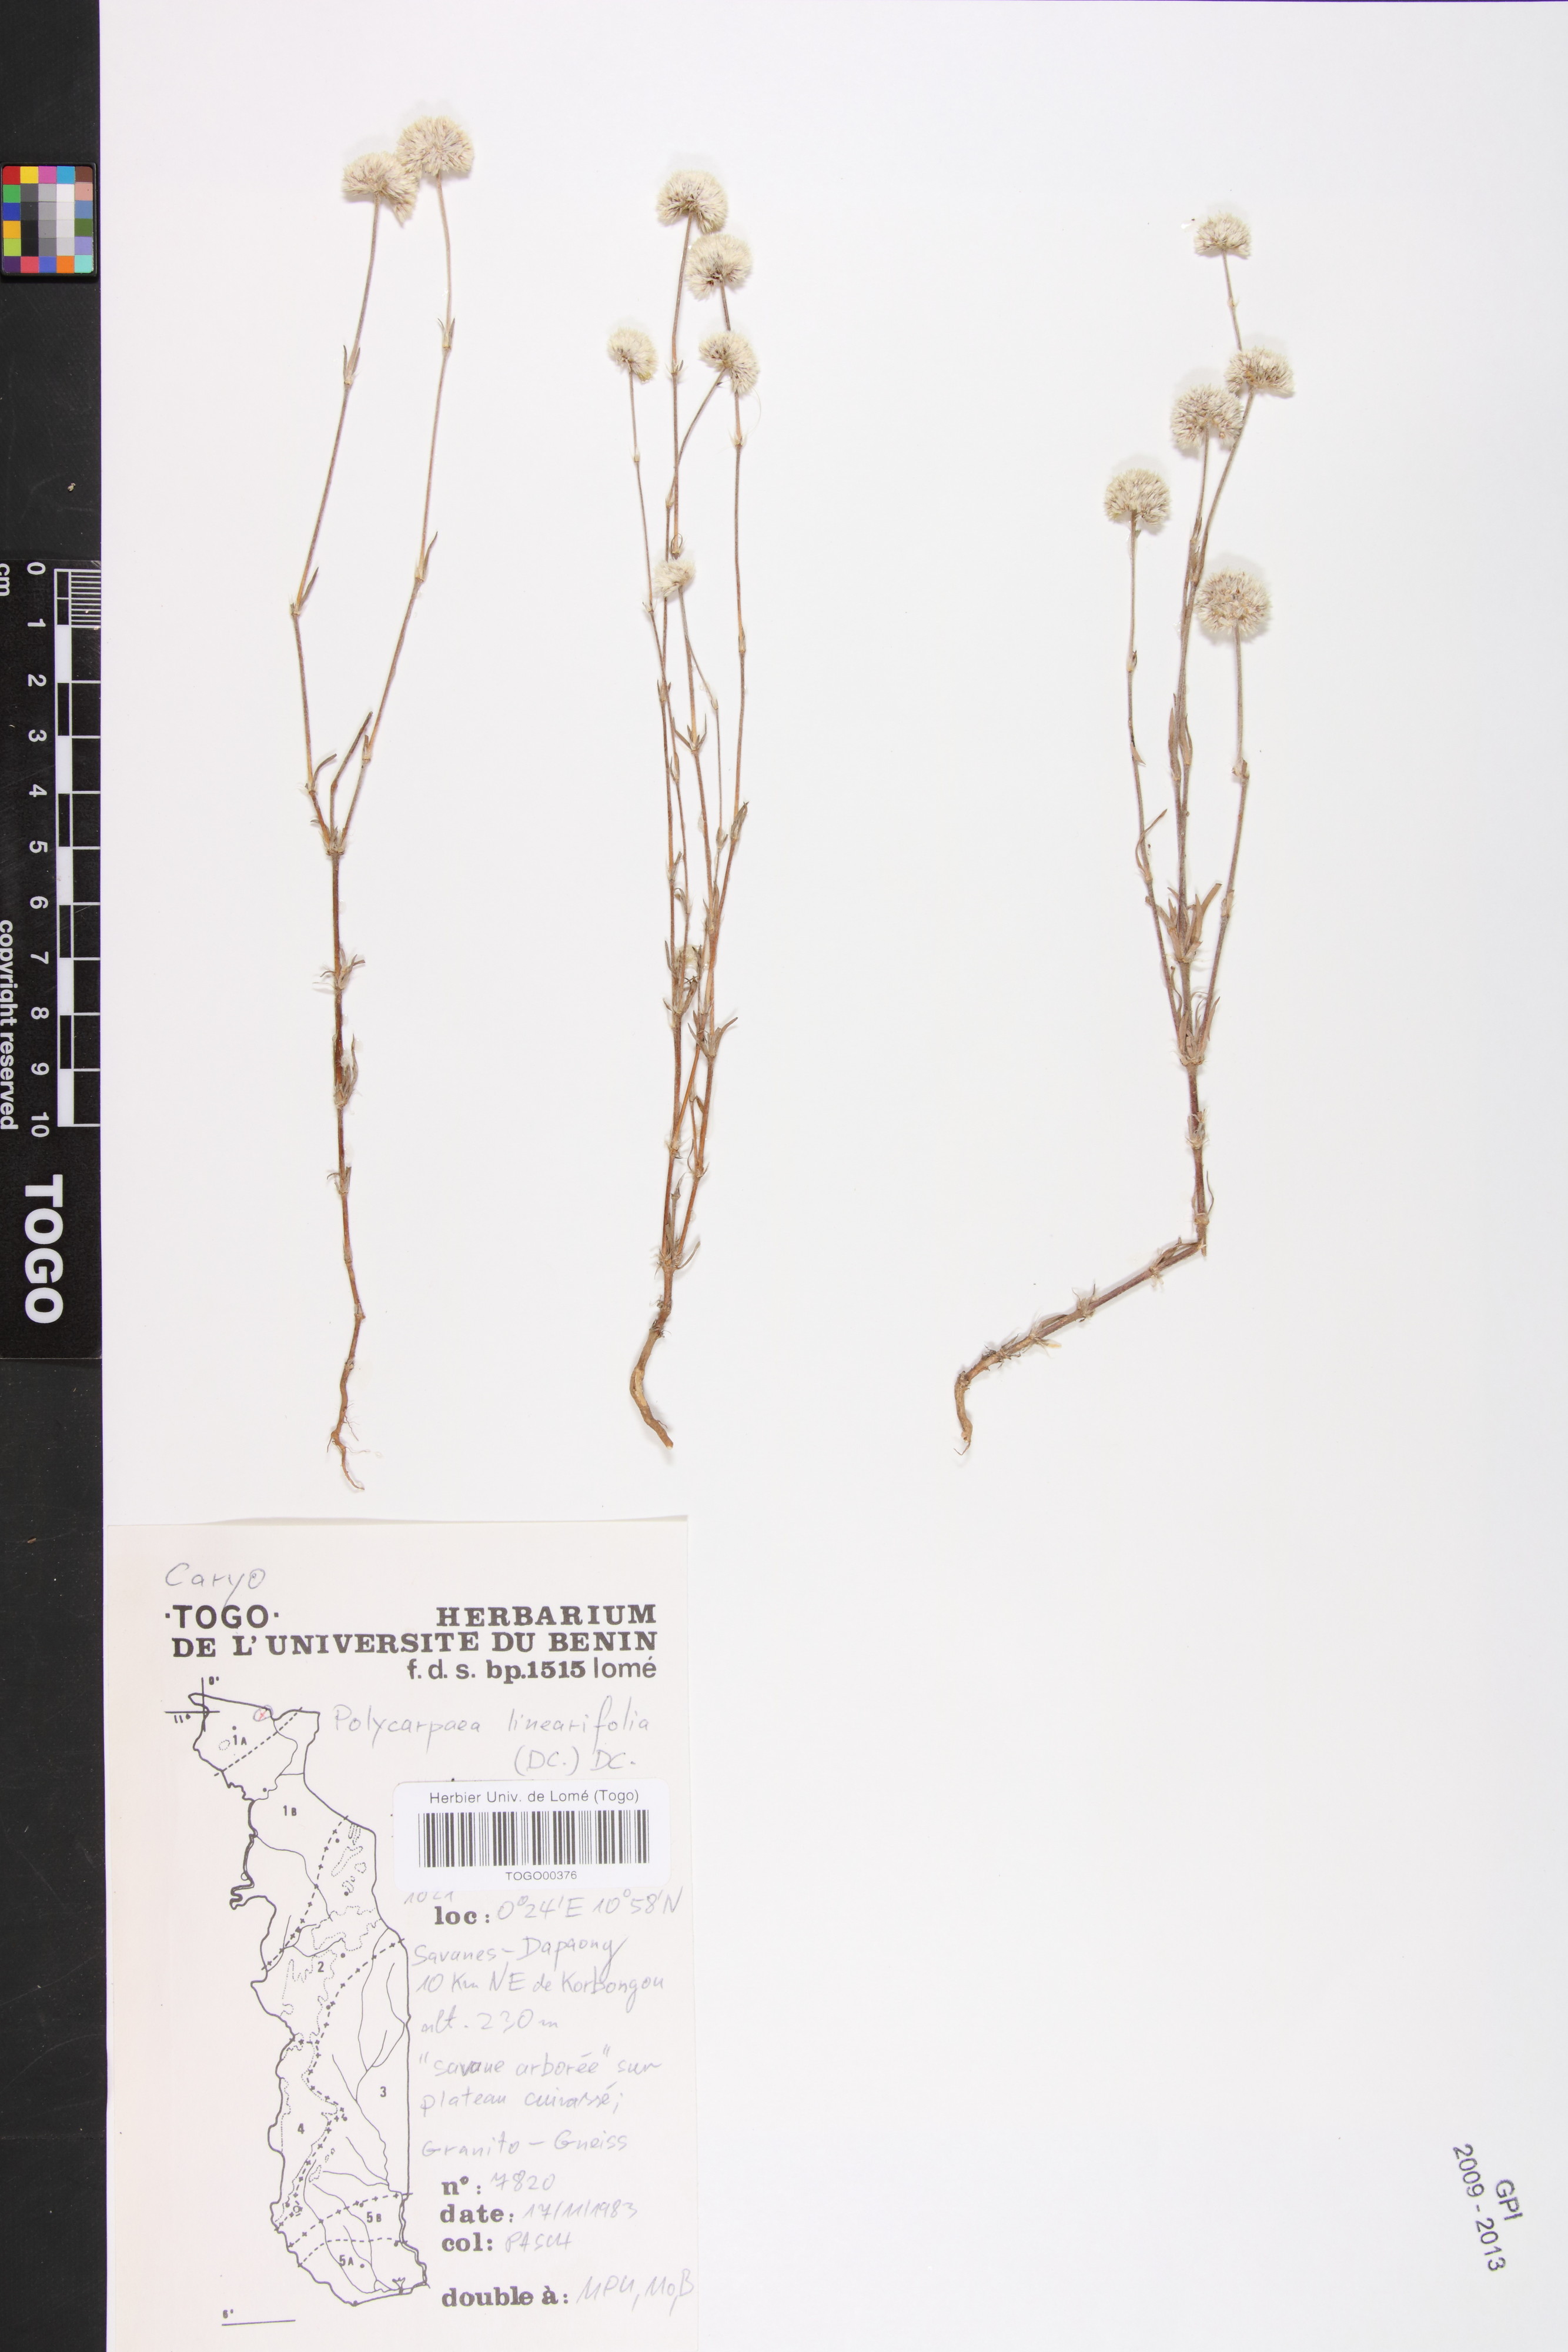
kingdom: Plantae
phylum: Tracheophyta
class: Magnoliopsida
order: Caryophyllales
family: Caryophyllaceae
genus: Polycarpaea
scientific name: Polycarpaea linearifolia
